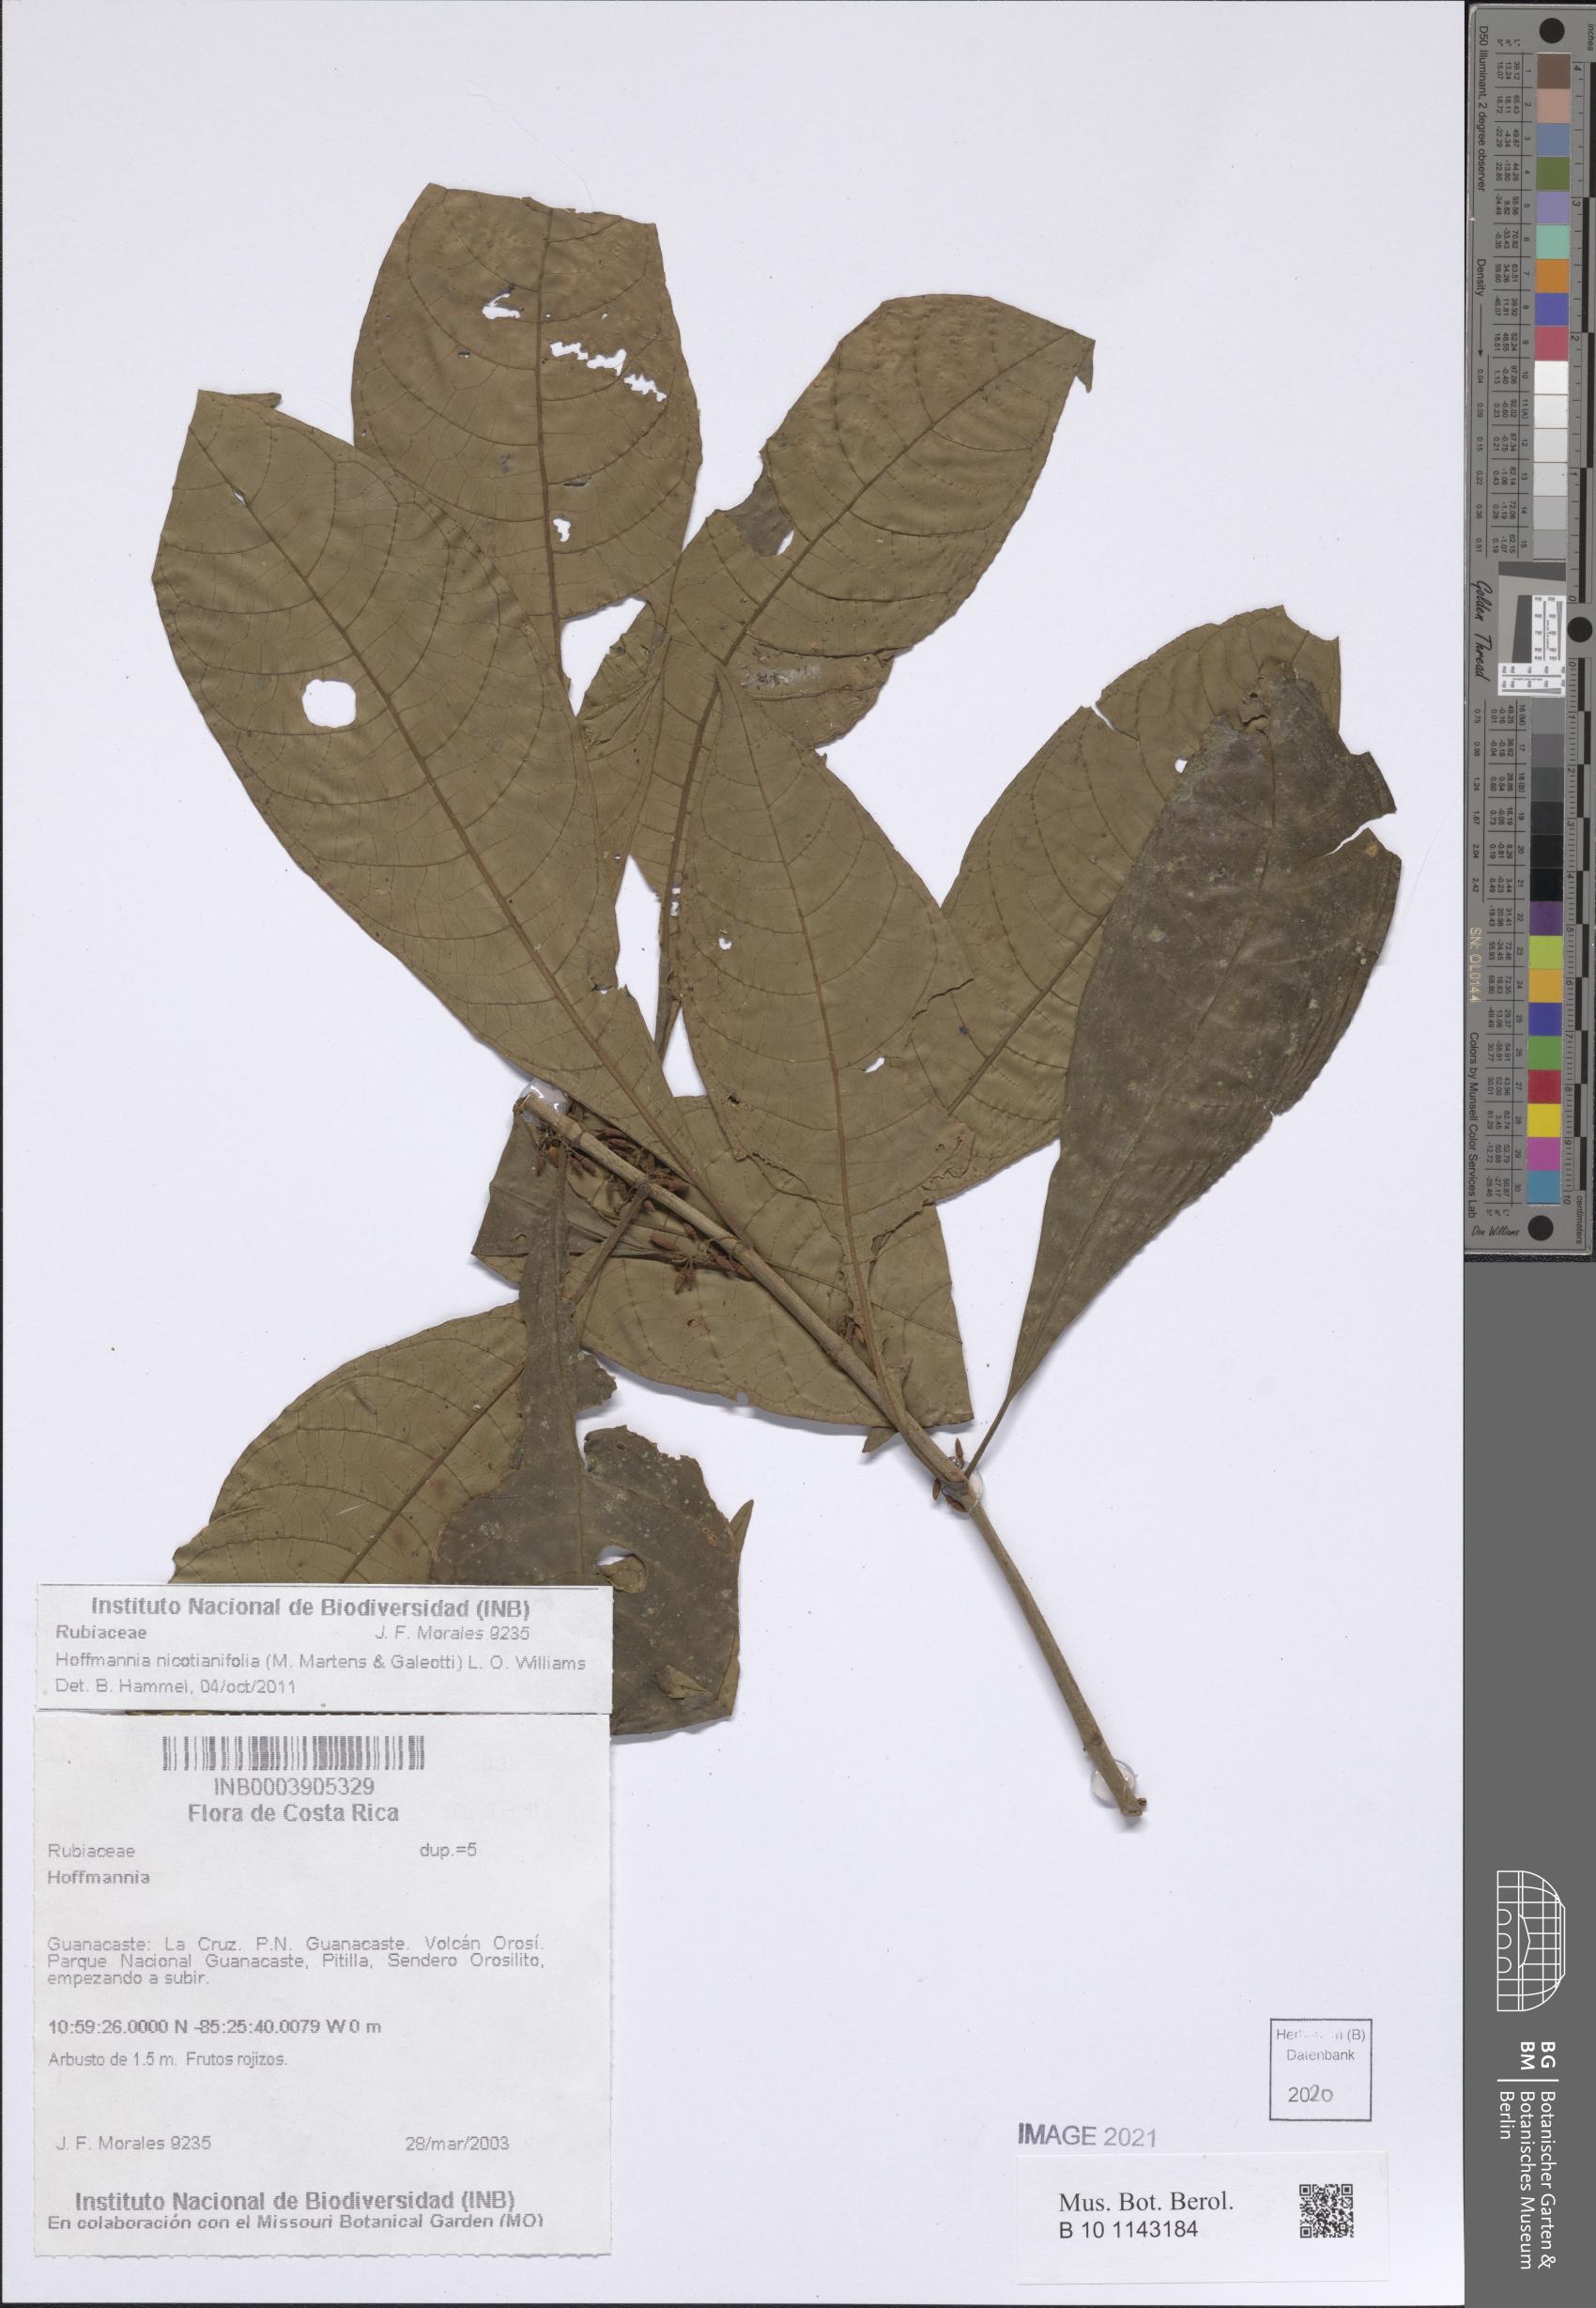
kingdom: Plantae
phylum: Tracheophyta
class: Magnoliopsida
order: Gentianales
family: Rubiaceae
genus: Hoffmannia
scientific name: Hoffmannia nicotianifolia
